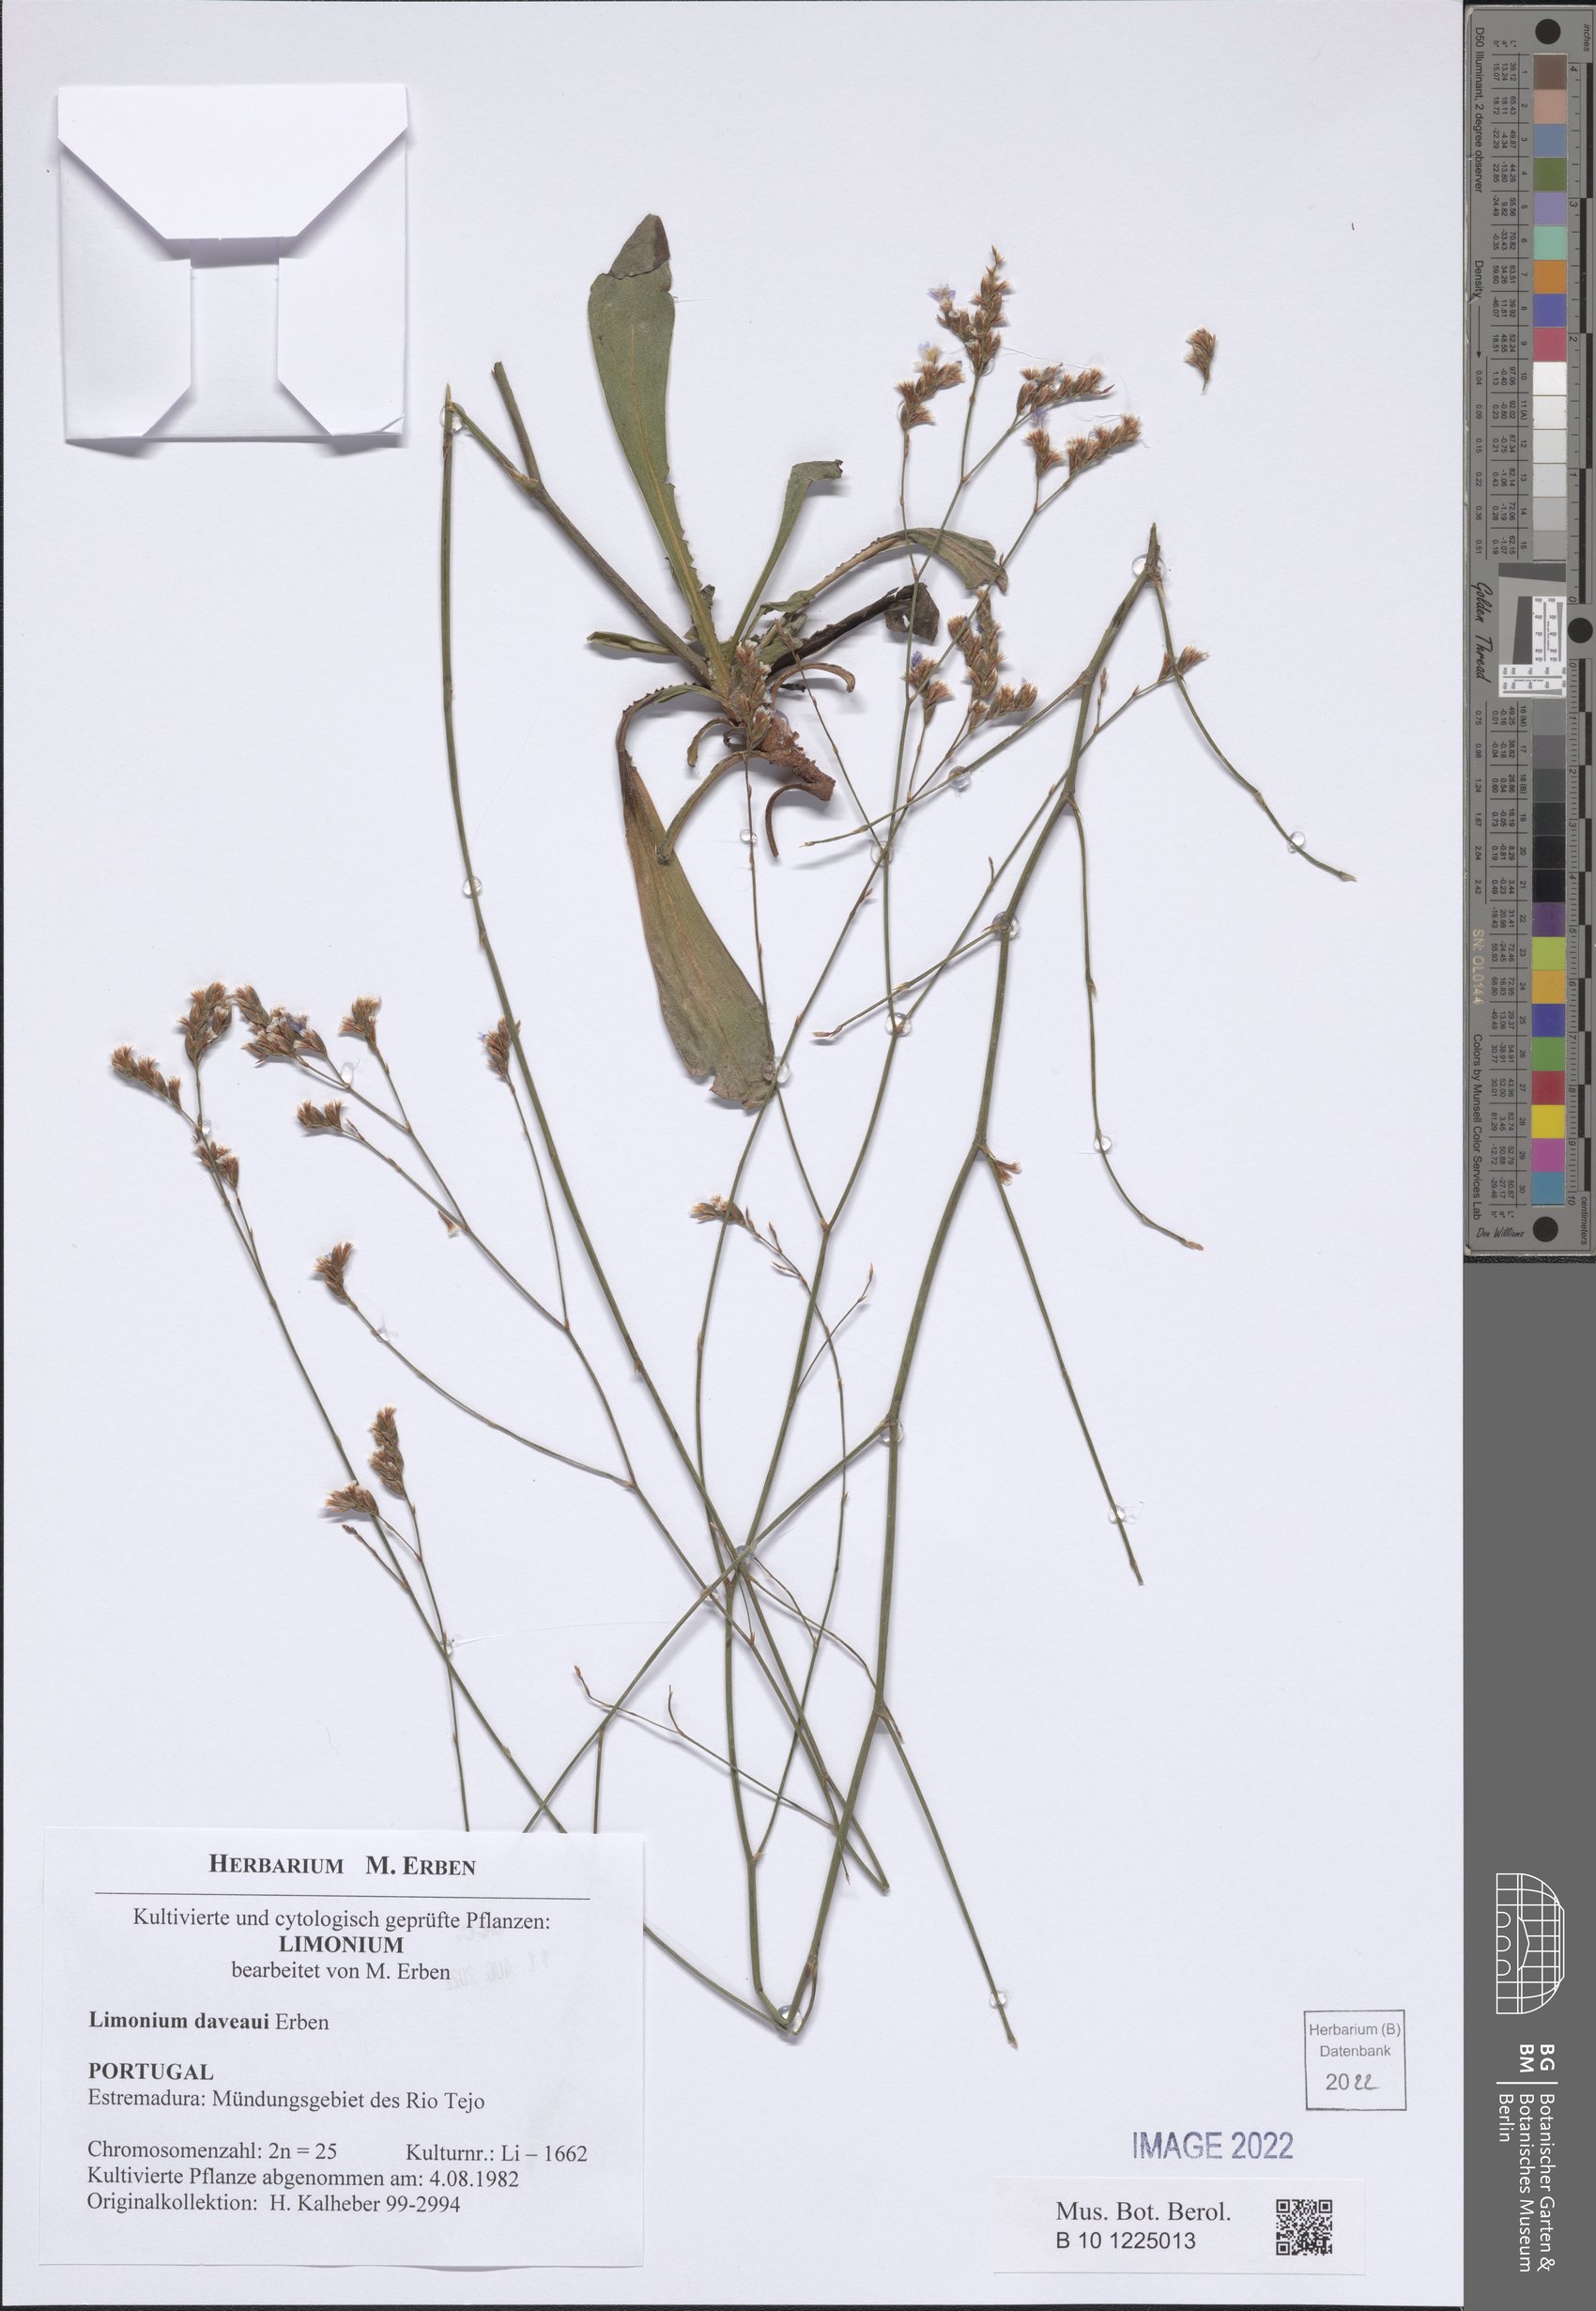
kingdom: Plantae
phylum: Tracheophyta
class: Magnoliopsida
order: Caryophyllales
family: Plumbaginaceae
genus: Limonium
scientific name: Limonium daveaui
